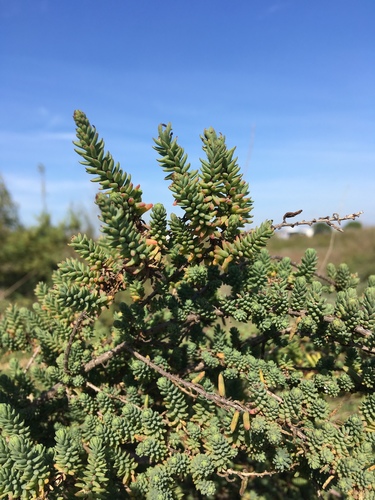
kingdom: Plantae
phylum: Tracheophyta
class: Magnoliopsida
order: Caryophyllales
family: Amaranthaceae
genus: Suaeda
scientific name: Suaeda vera
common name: Shrubby sea-blite
